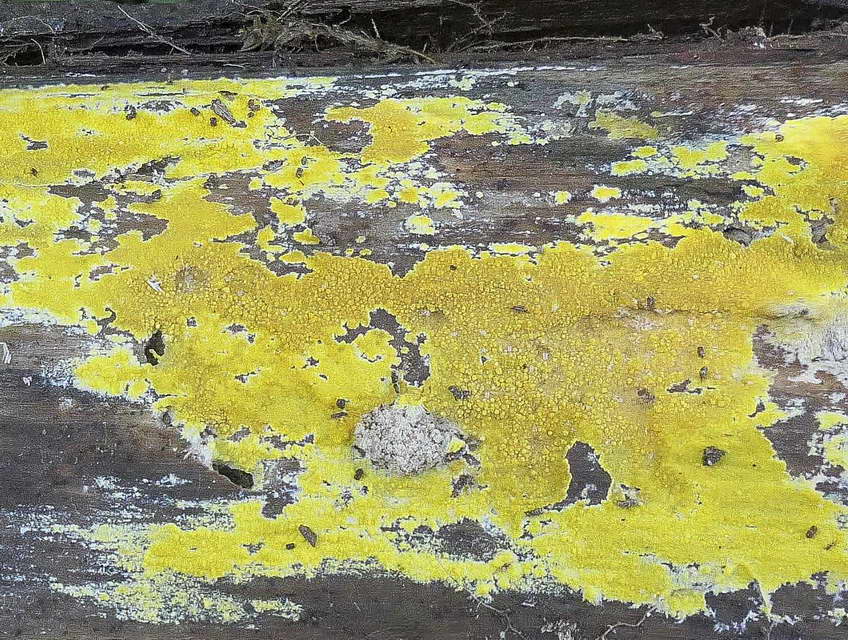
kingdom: Fungi
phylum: Basidiomycota
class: Agaricomycetes
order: Polyporales
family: Meruliaceae
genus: Phlebiodontia
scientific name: Phlebiodontia subochracea
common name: svovl-åresvamp
